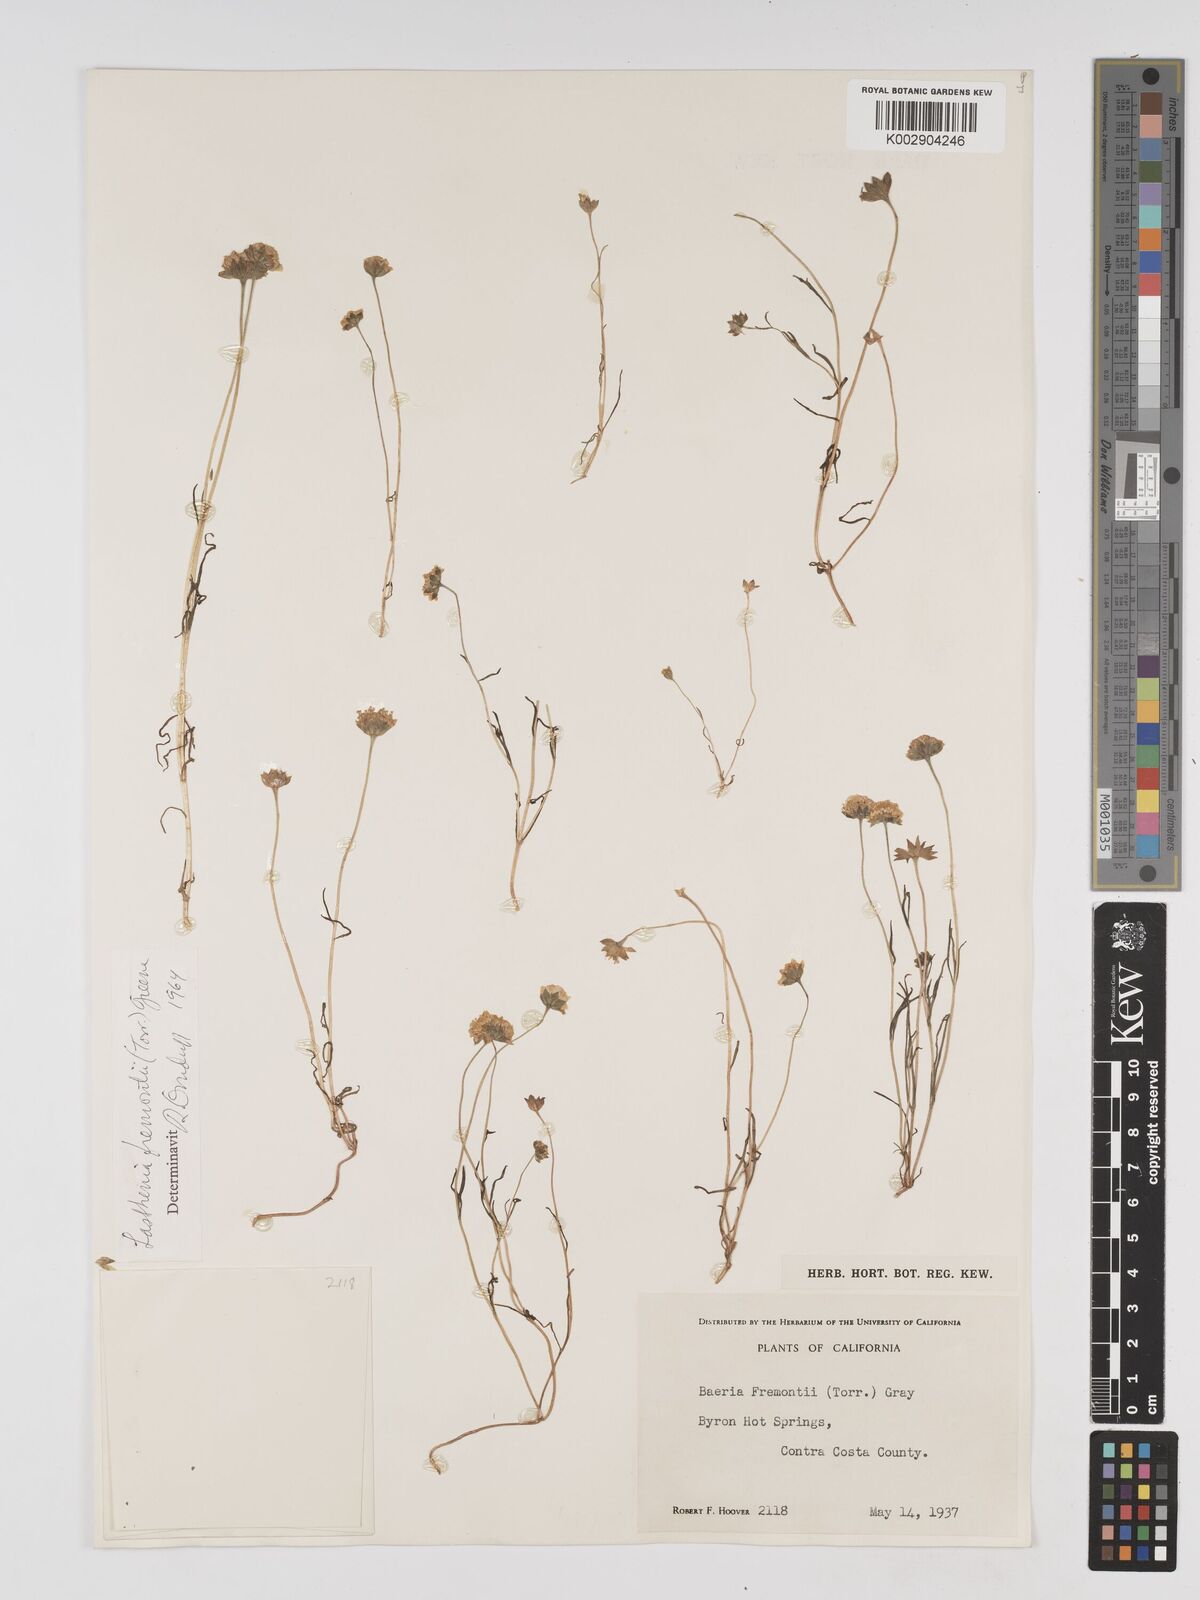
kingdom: Plantae
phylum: Tracheophyta
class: Magnoliopsida
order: Asterales
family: Asteraceae
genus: Lasthenia
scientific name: Lasthenia fremontii
